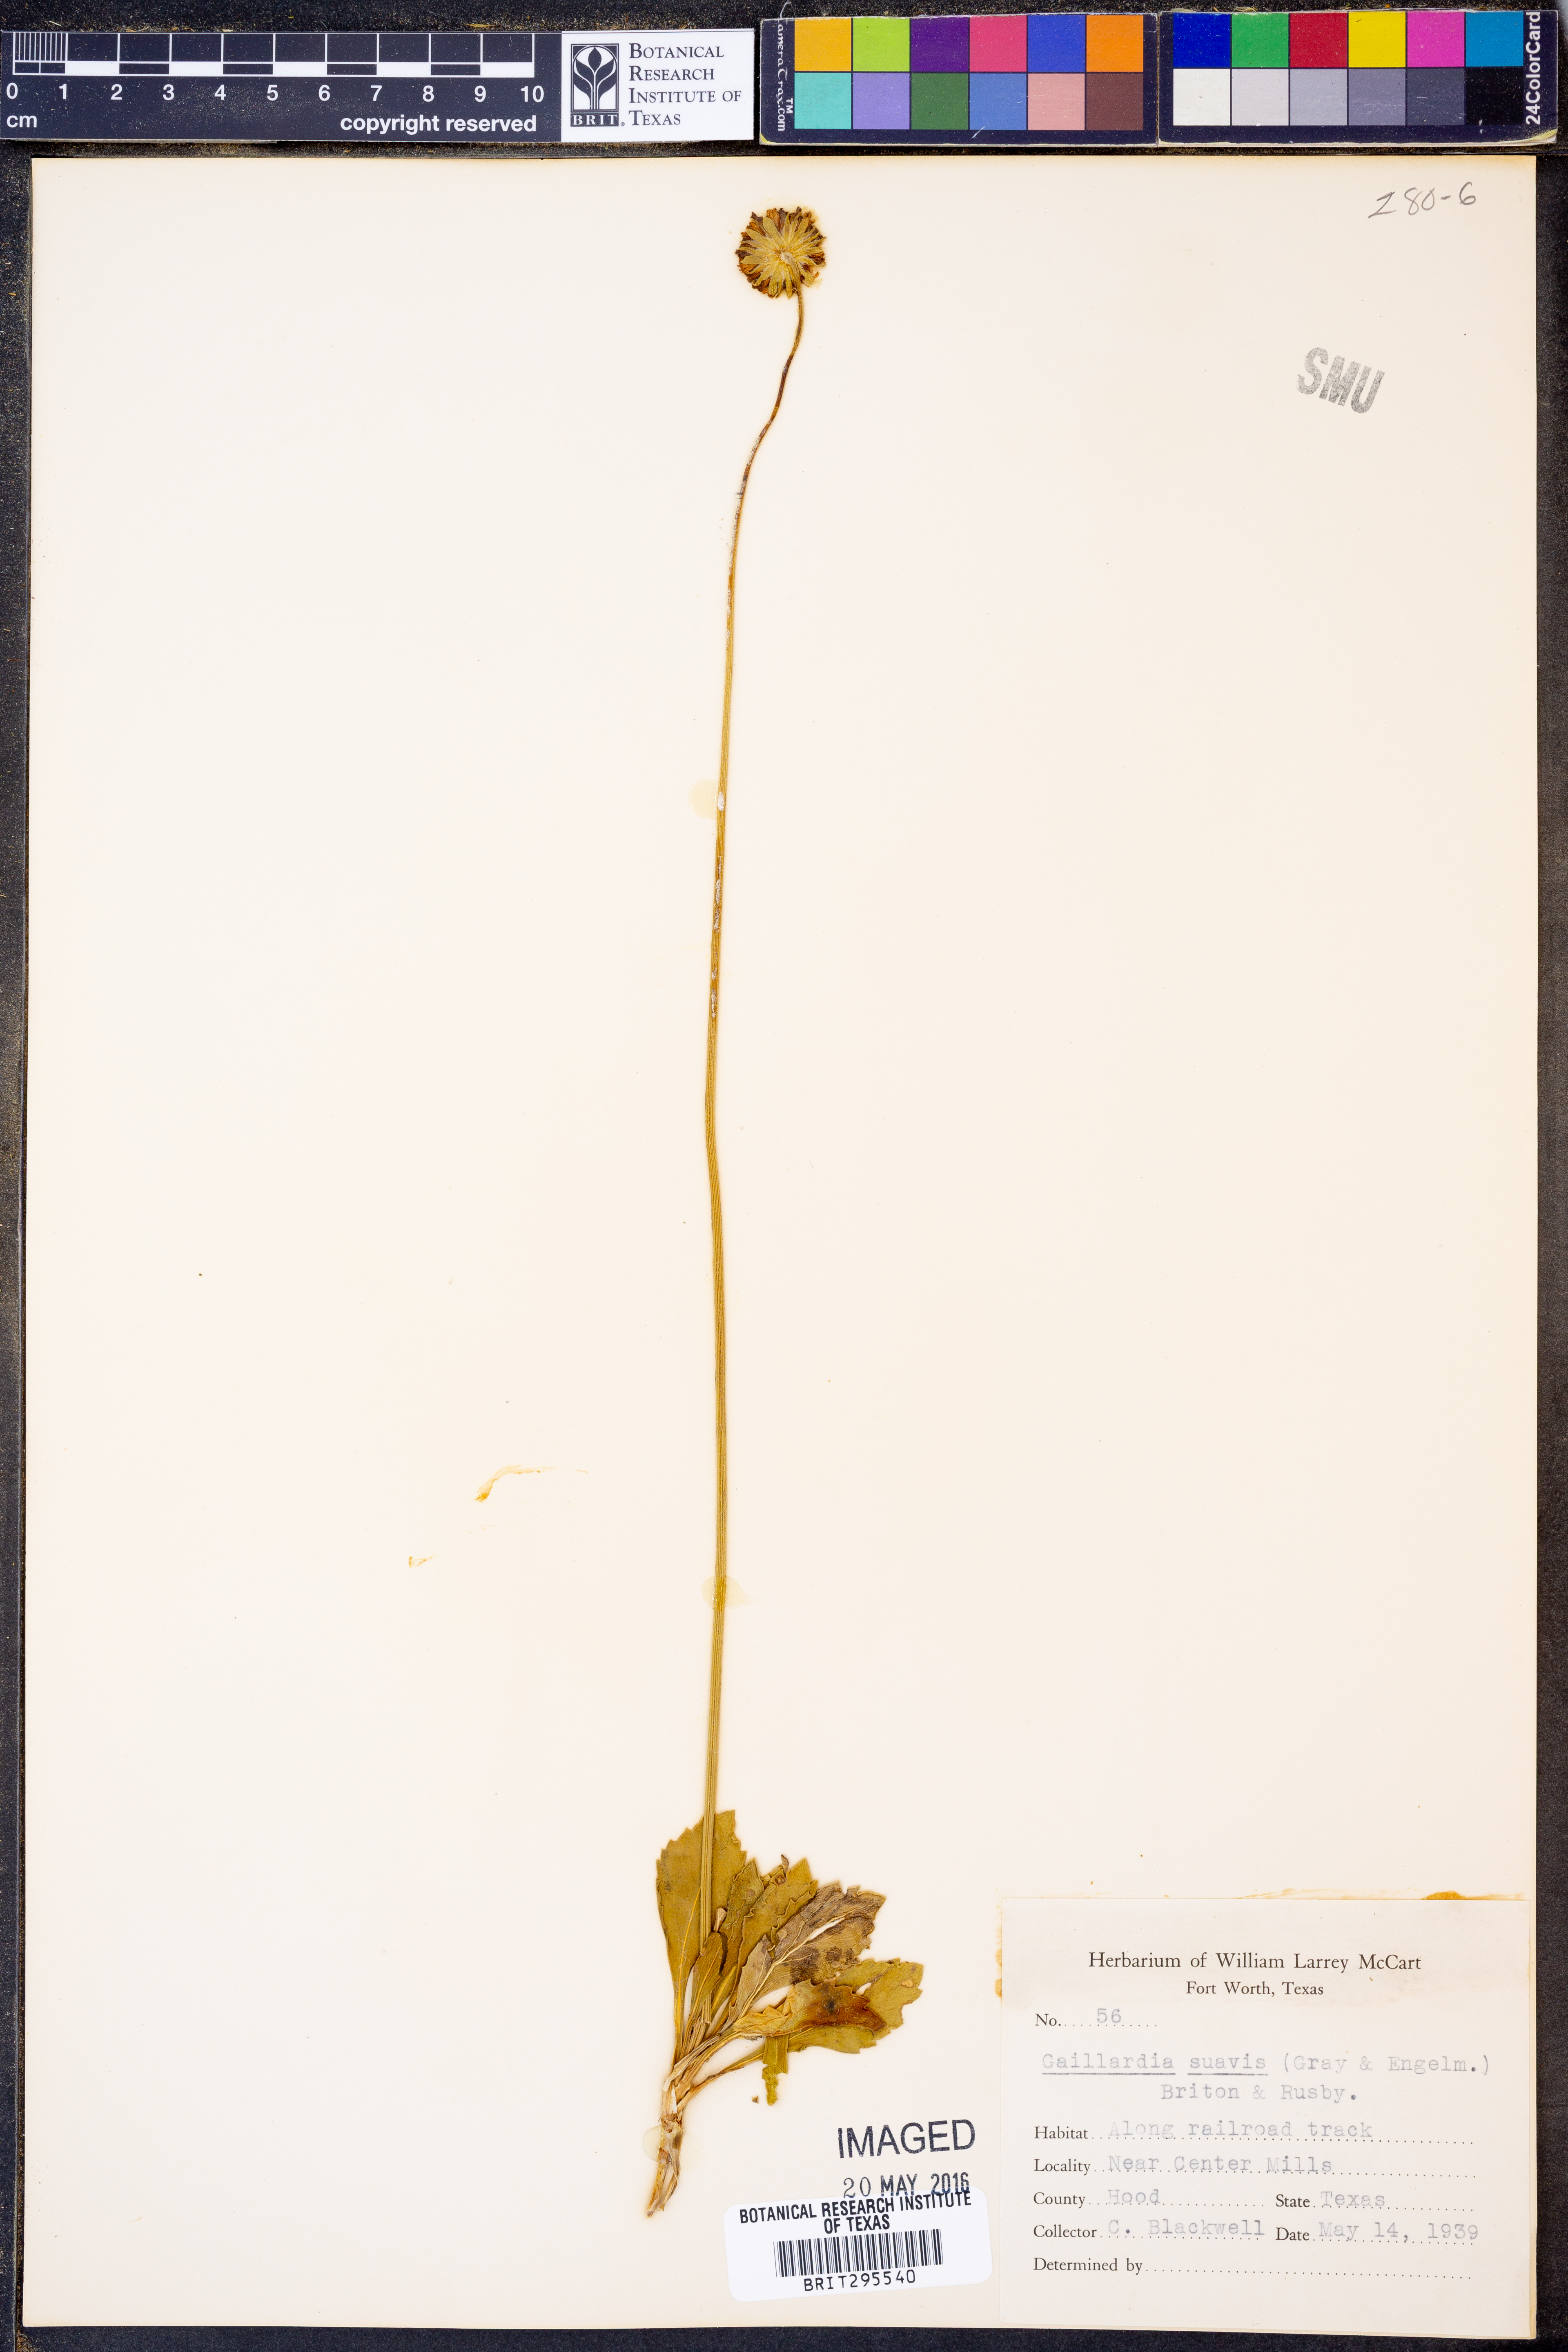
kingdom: Plantae
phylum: Tracheophyta
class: Magnoliopsida
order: Asterales
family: Asteraceae
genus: Gaillardia
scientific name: Gaillardia suavis
